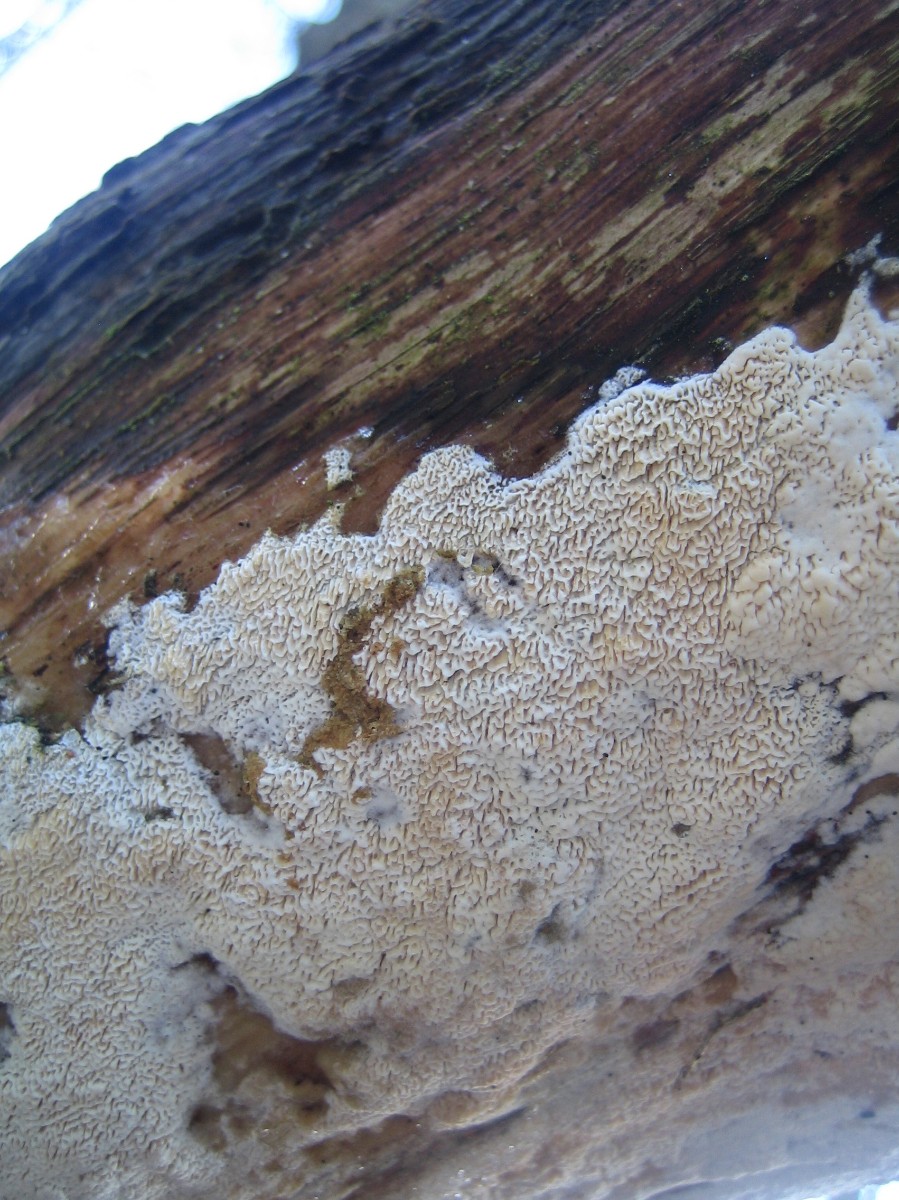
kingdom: Fungi
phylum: Basidiomycota
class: Agaricomycetes
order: Hymenochaetales
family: Schizoporaceae
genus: Xylodon
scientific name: Xylodon subtropicus
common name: labyrint-tandsvamp
